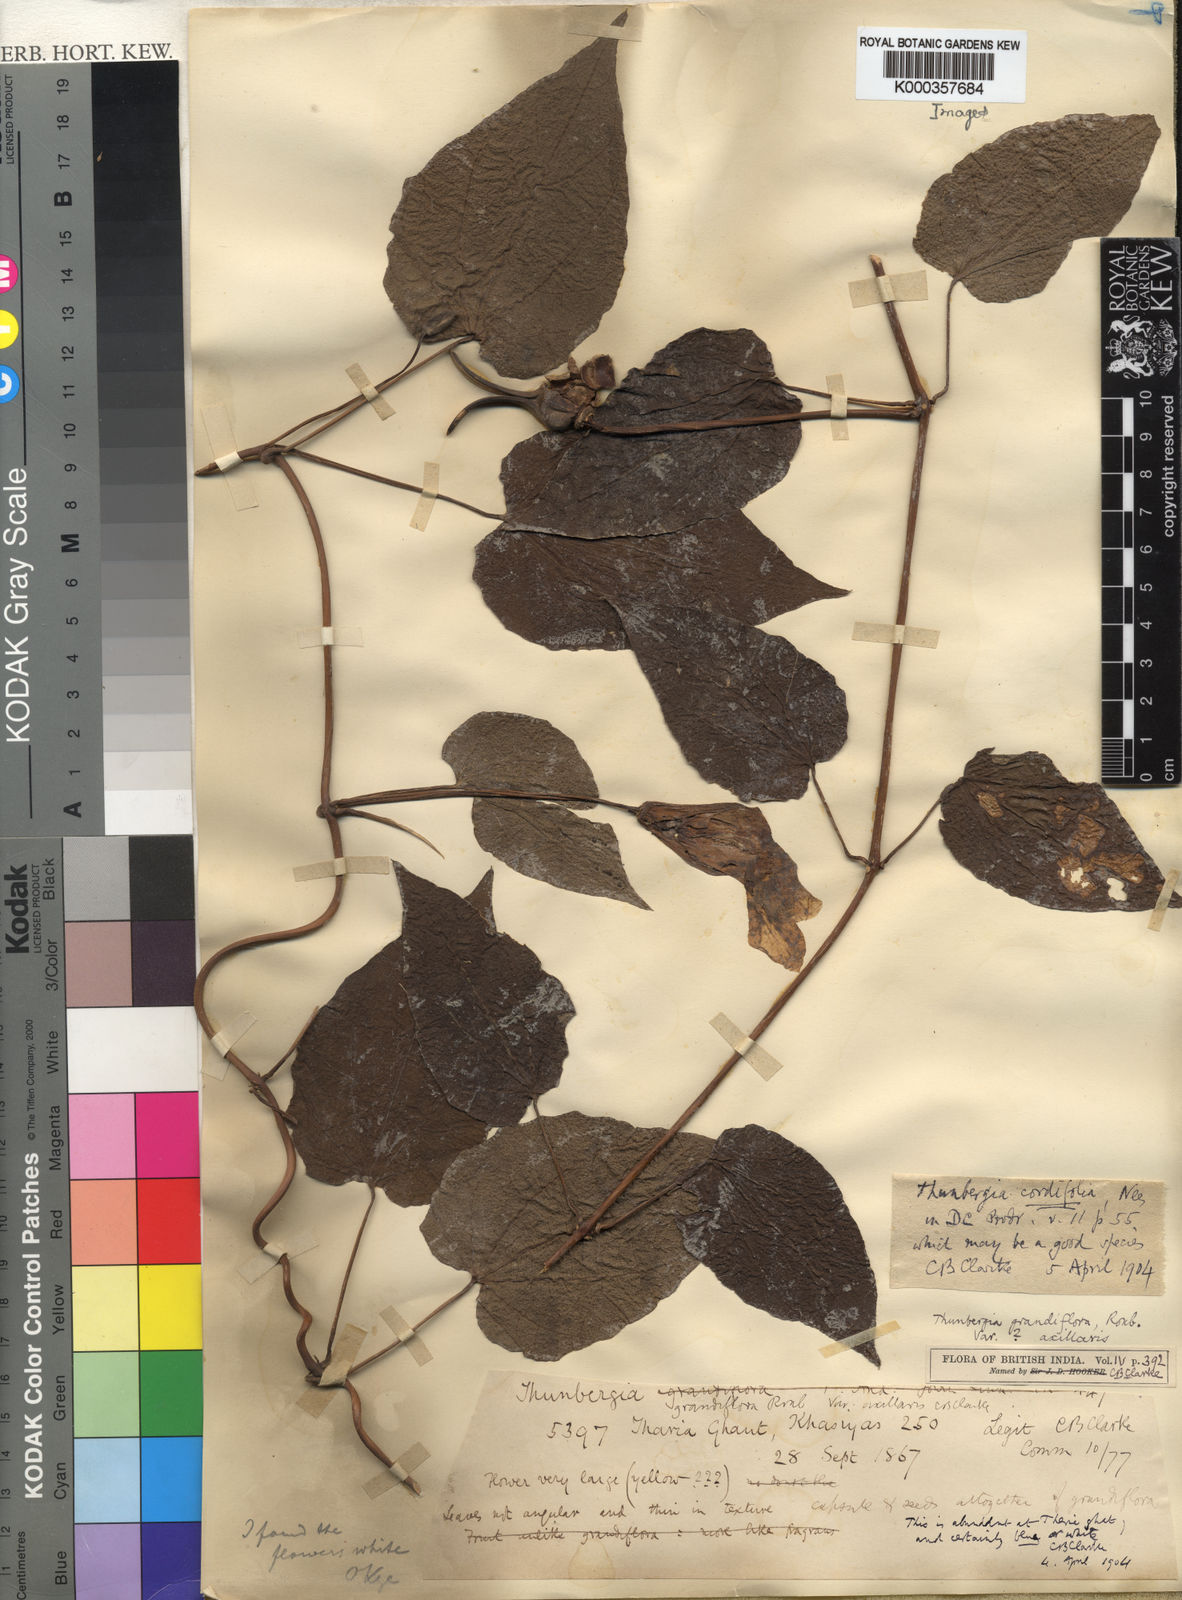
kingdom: Plantae
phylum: Tracheophyta
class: Magnoliopsida
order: Lamiales
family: Acanthaceae
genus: Thunbergia
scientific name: Thunbergia grandiflora
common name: Bengal trumpet
